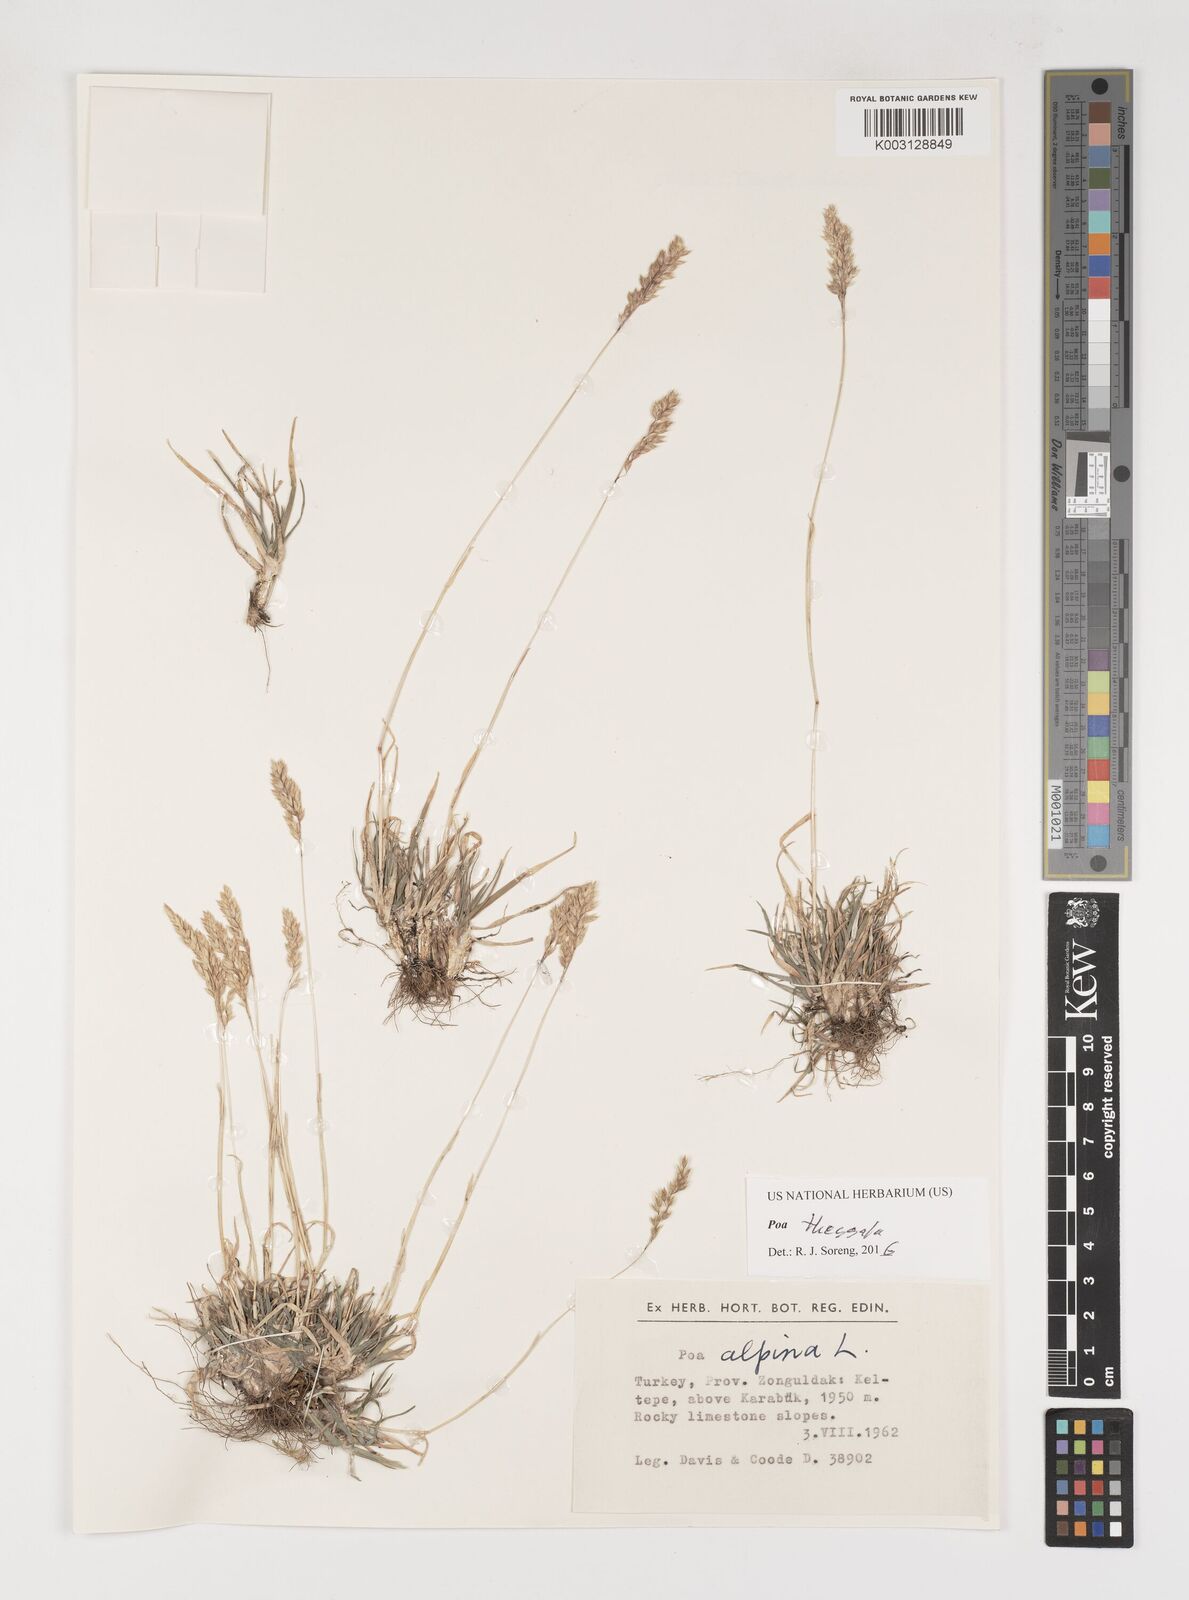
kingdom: Plantae
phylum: Tracheophyta
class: Liliopsida
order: Poales
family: Poaceae
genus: Poa
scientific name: Poa thessala
